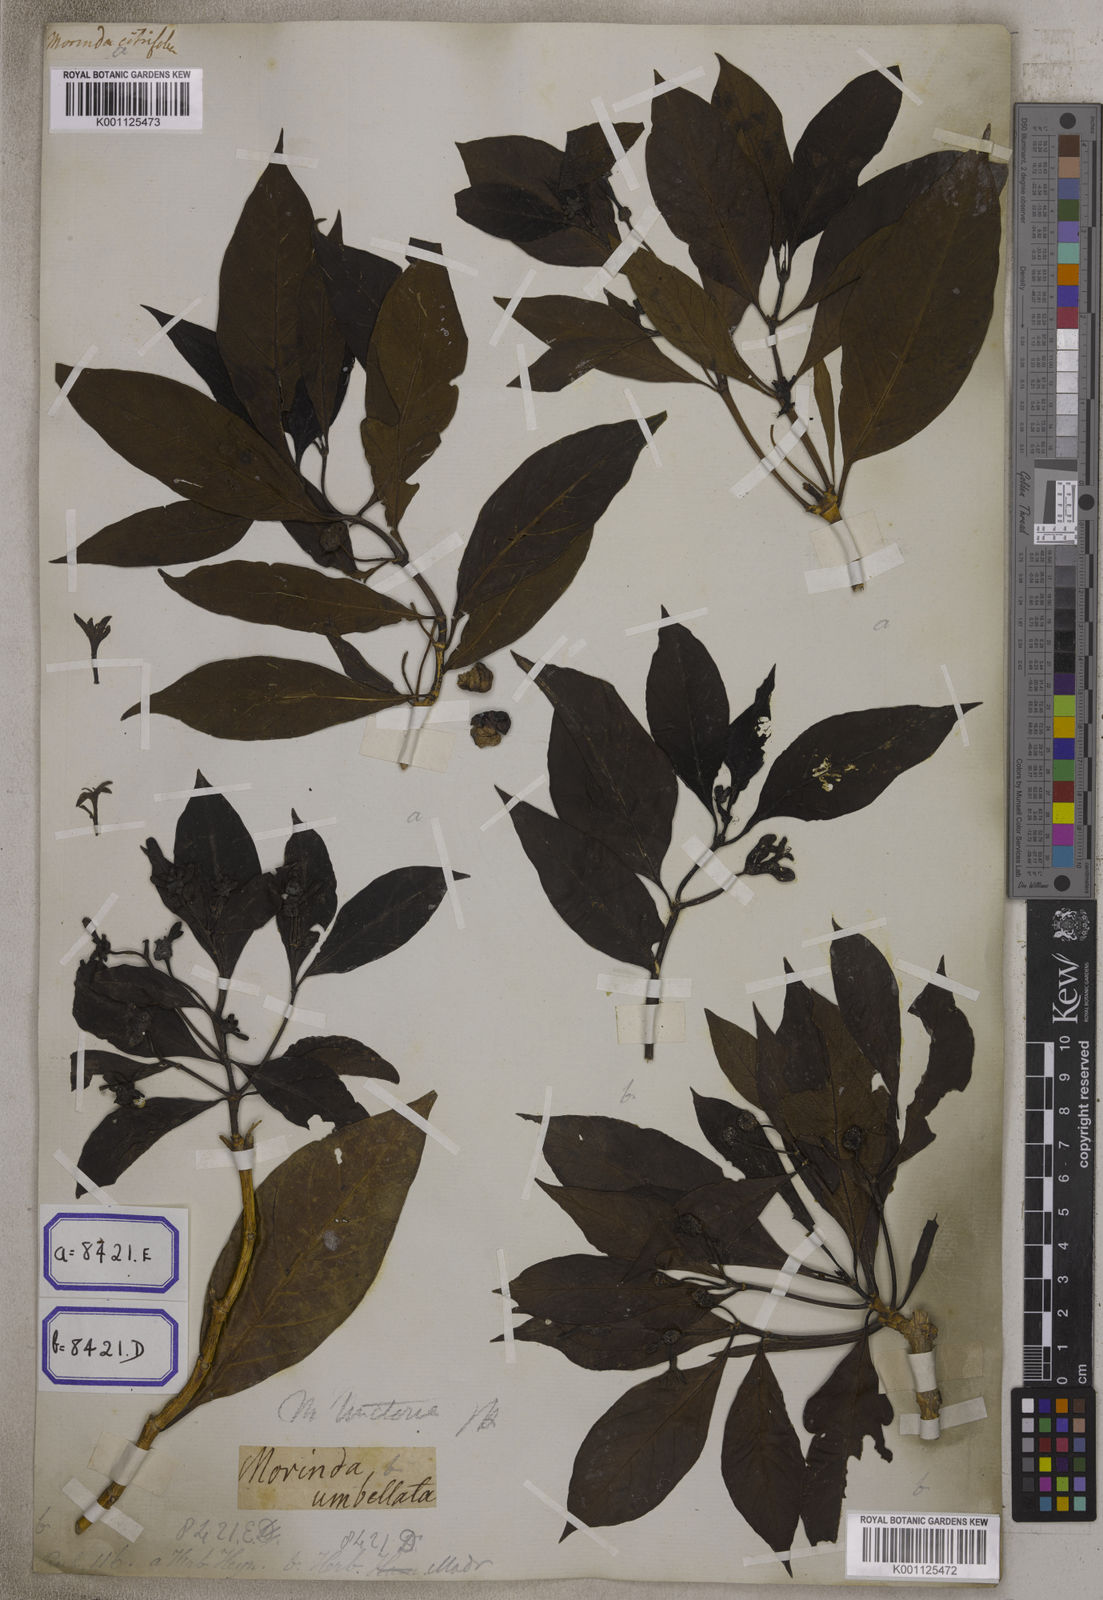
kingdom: Plantae
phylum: Tracheophyta
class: Magnoliopsida
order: Gentianales
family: Rubiaceae
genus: Morinda
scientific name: Morinda coreia
